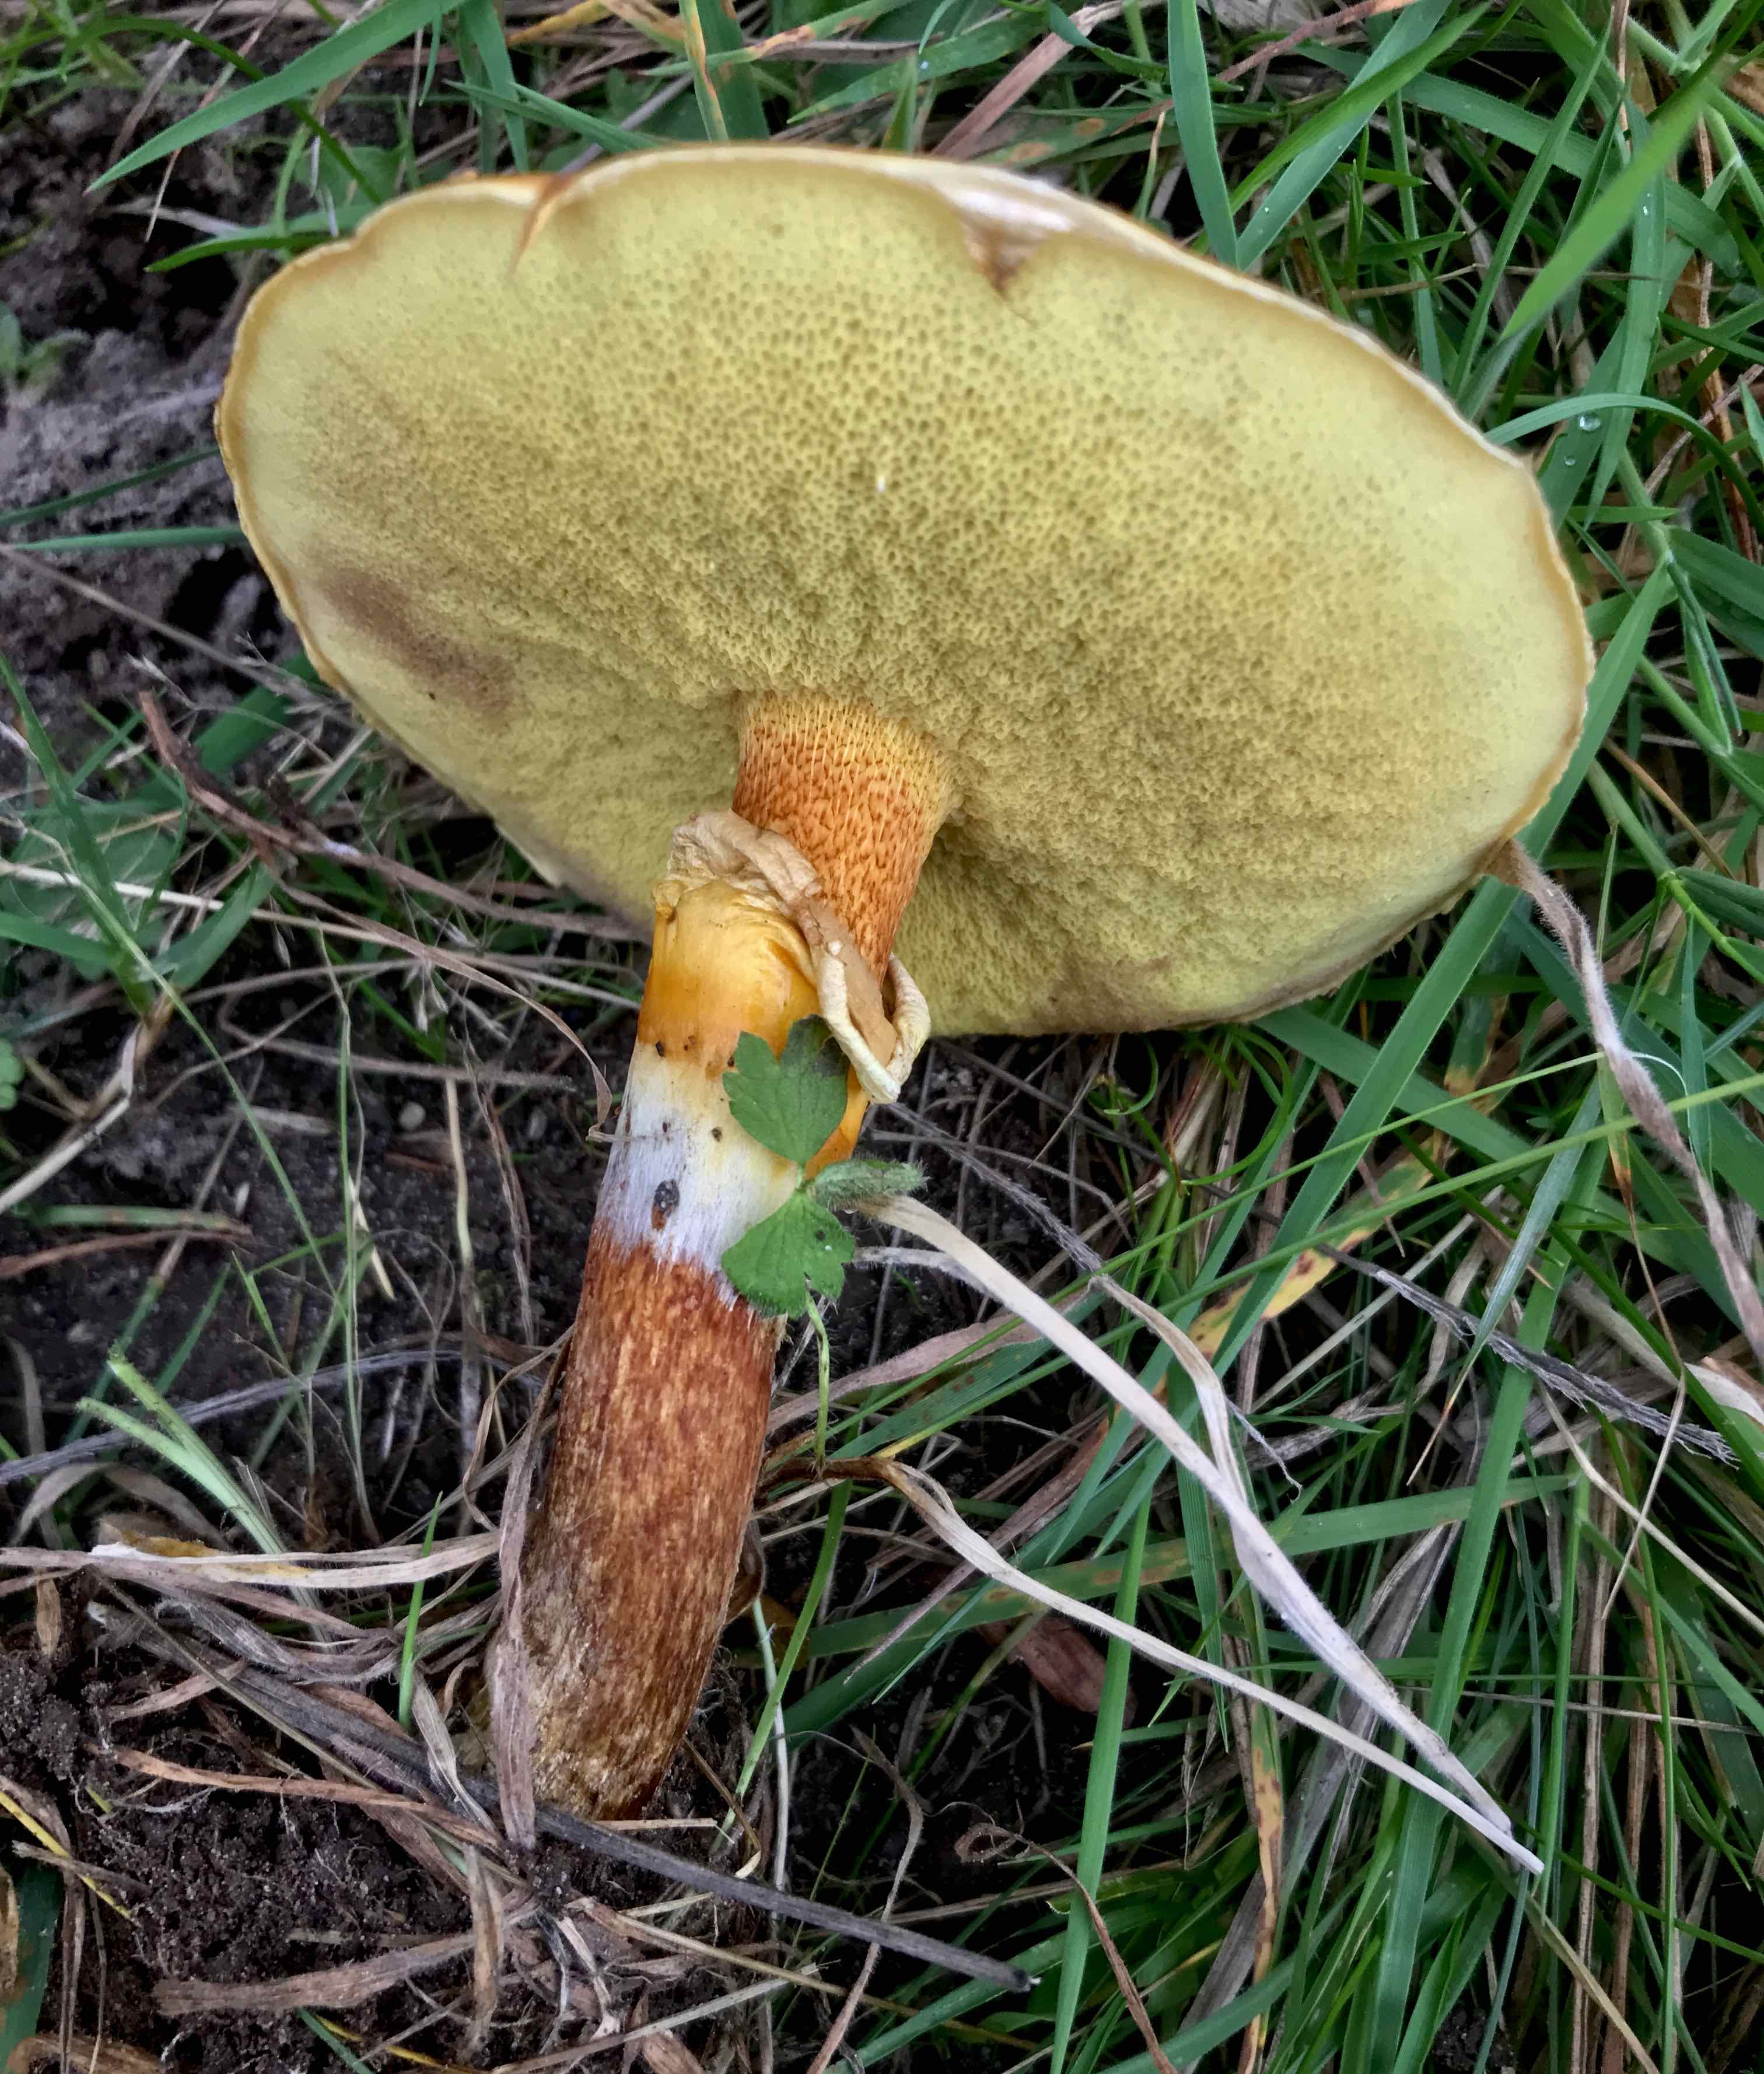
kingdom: Fungi
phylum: Basidiomycota
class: Agaricomycetes
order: Boletales
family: Suillaceae
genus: Suillus
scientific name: Suillus grevillei
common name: lærke-slimrørhat
